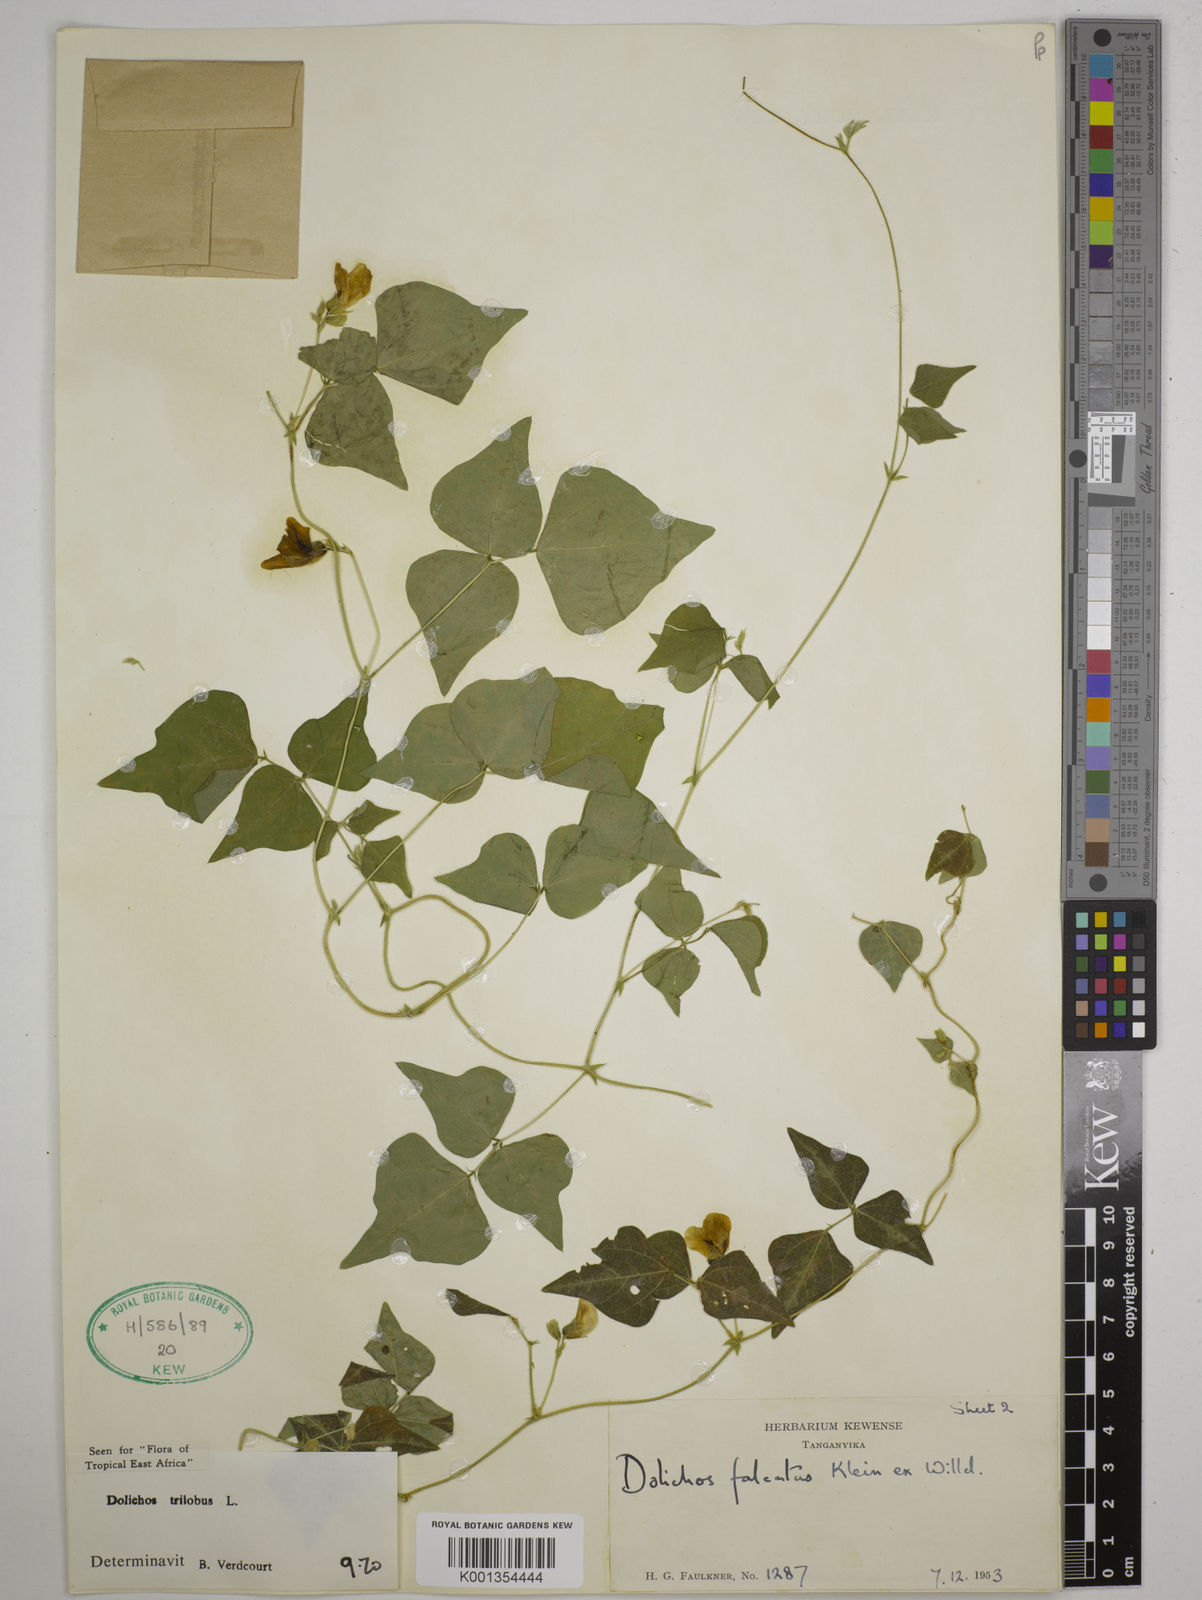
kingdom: Plantae
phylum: Tracheophyta
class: Magnoliopsida
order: Fabales
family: Fabaceae
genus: Dolichos
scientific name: Dolichos
